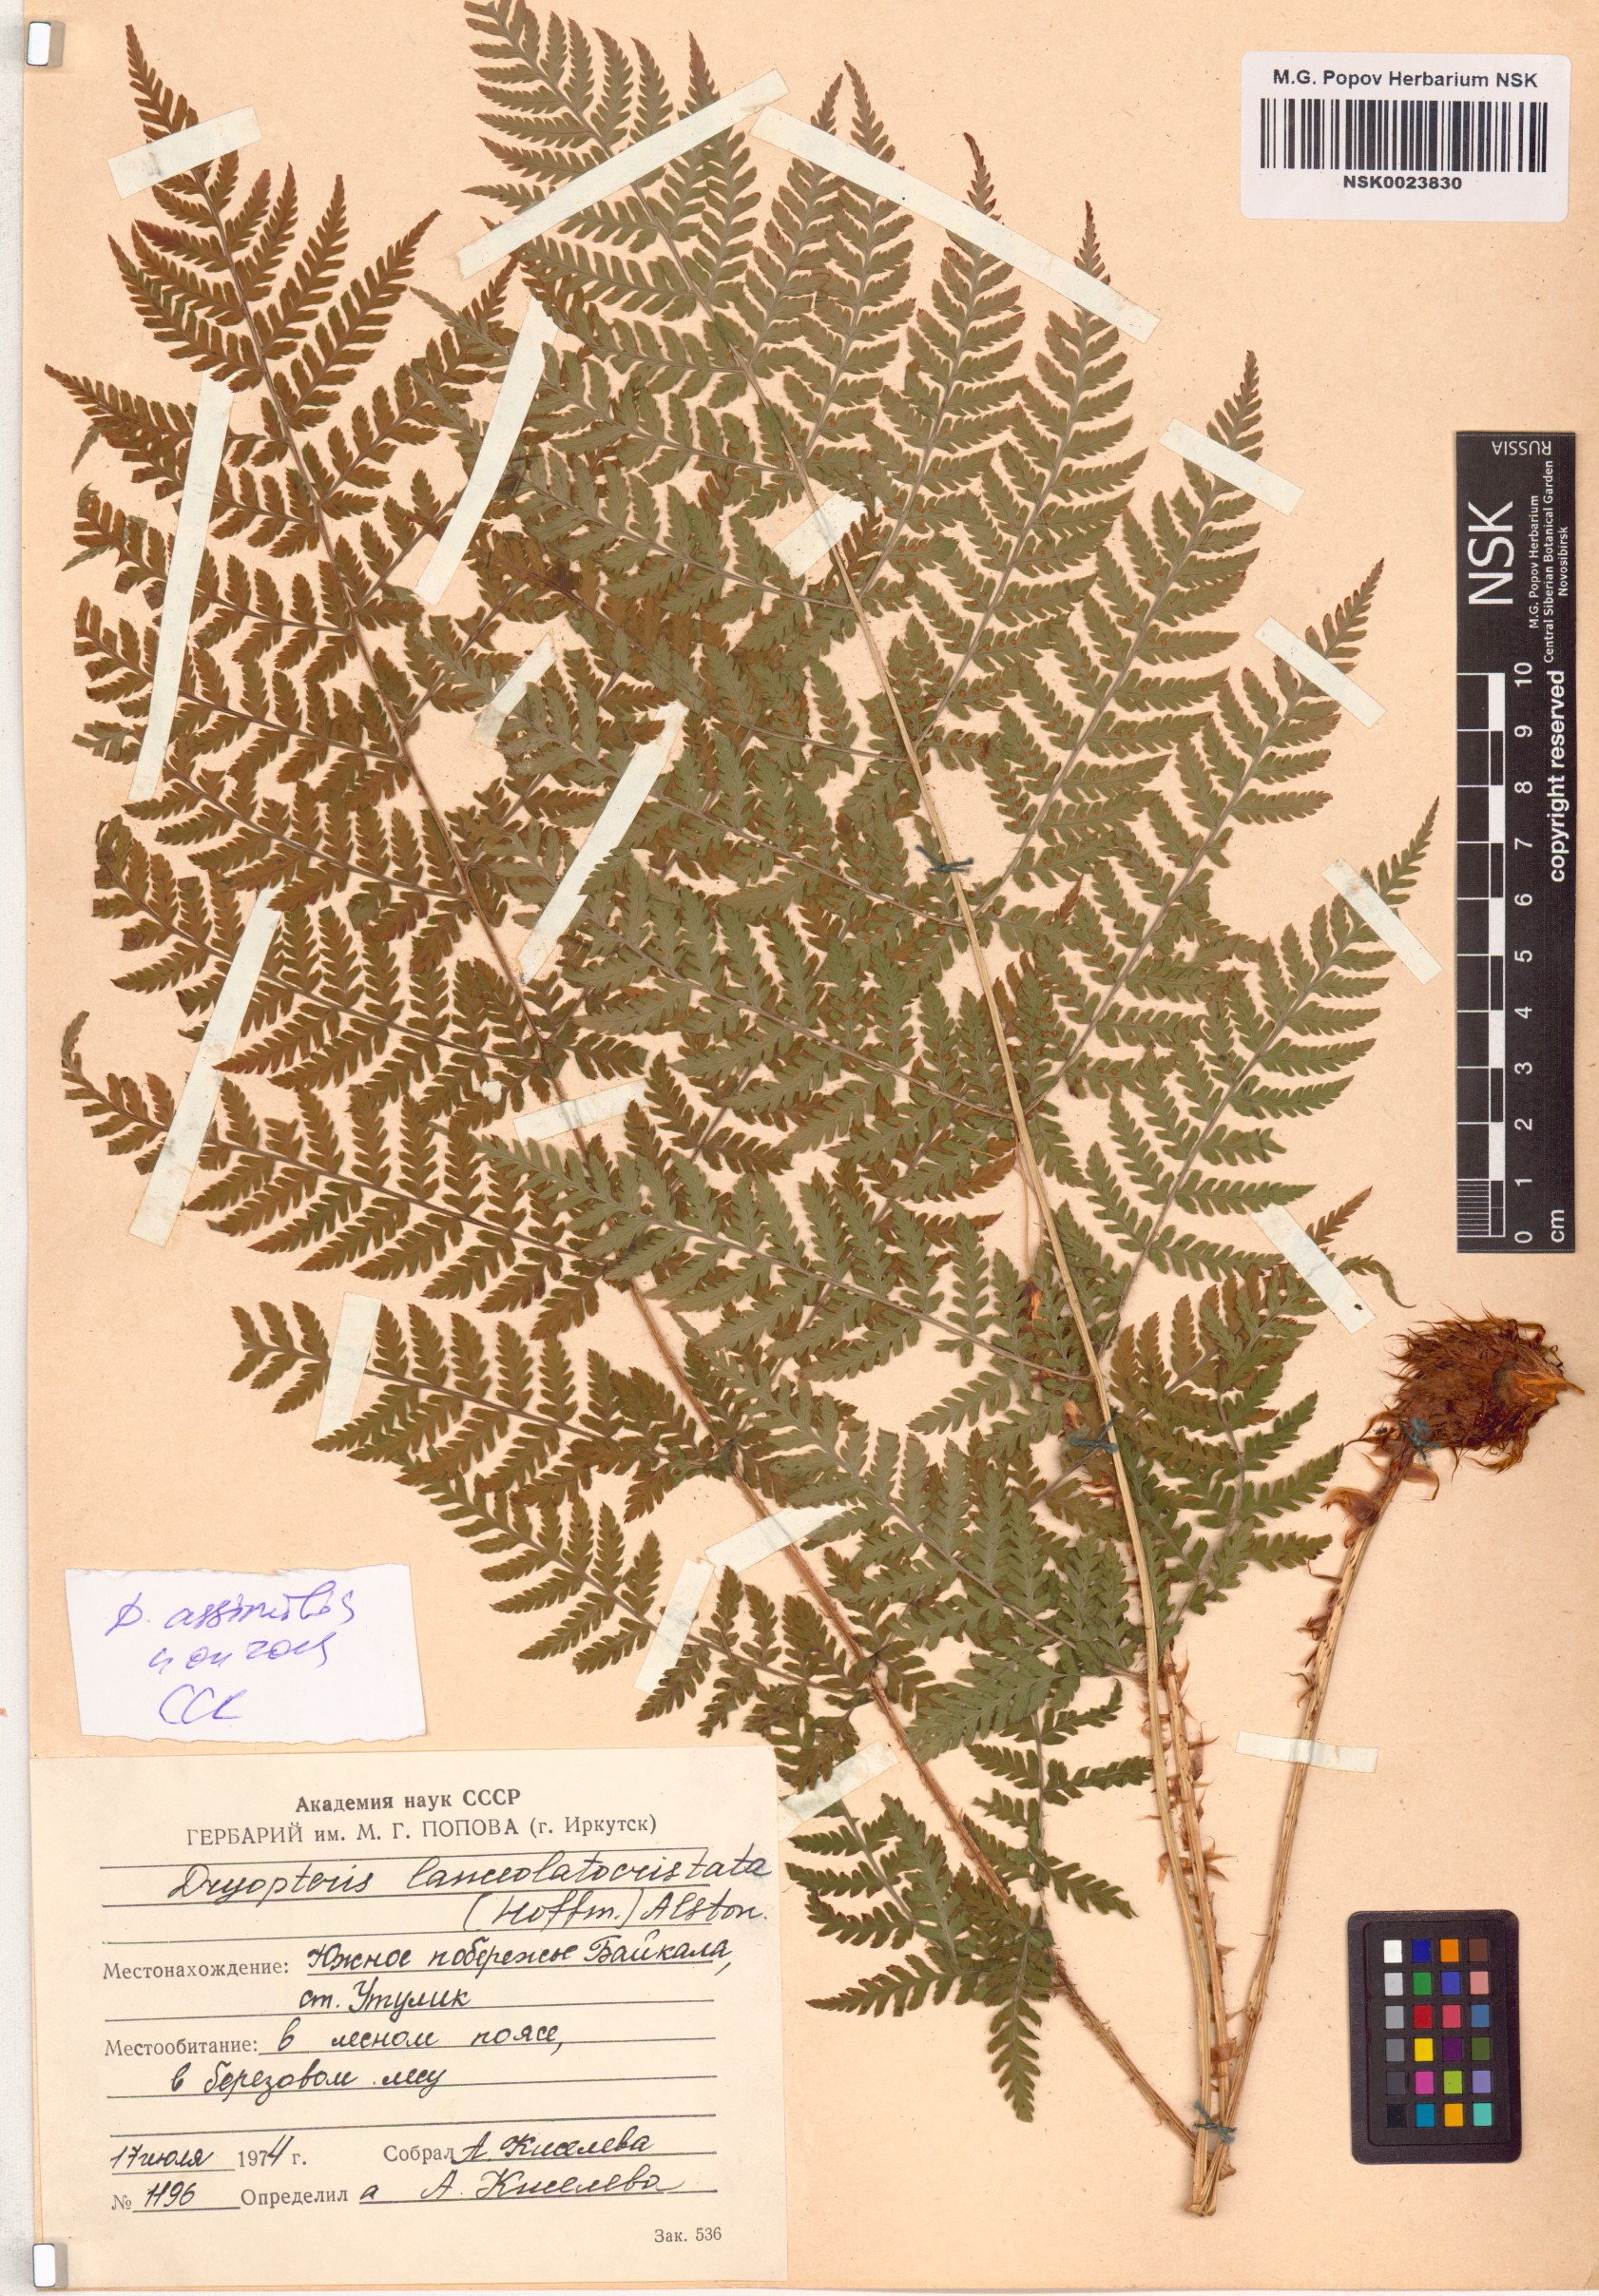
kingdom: Plantae
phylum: Tracheophyta
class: Polypodiopsida
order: Polypodiales
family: Dryopteridaceae
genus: Dryopteris
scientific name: Dryopteris expansa
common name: Northern buckler fern
